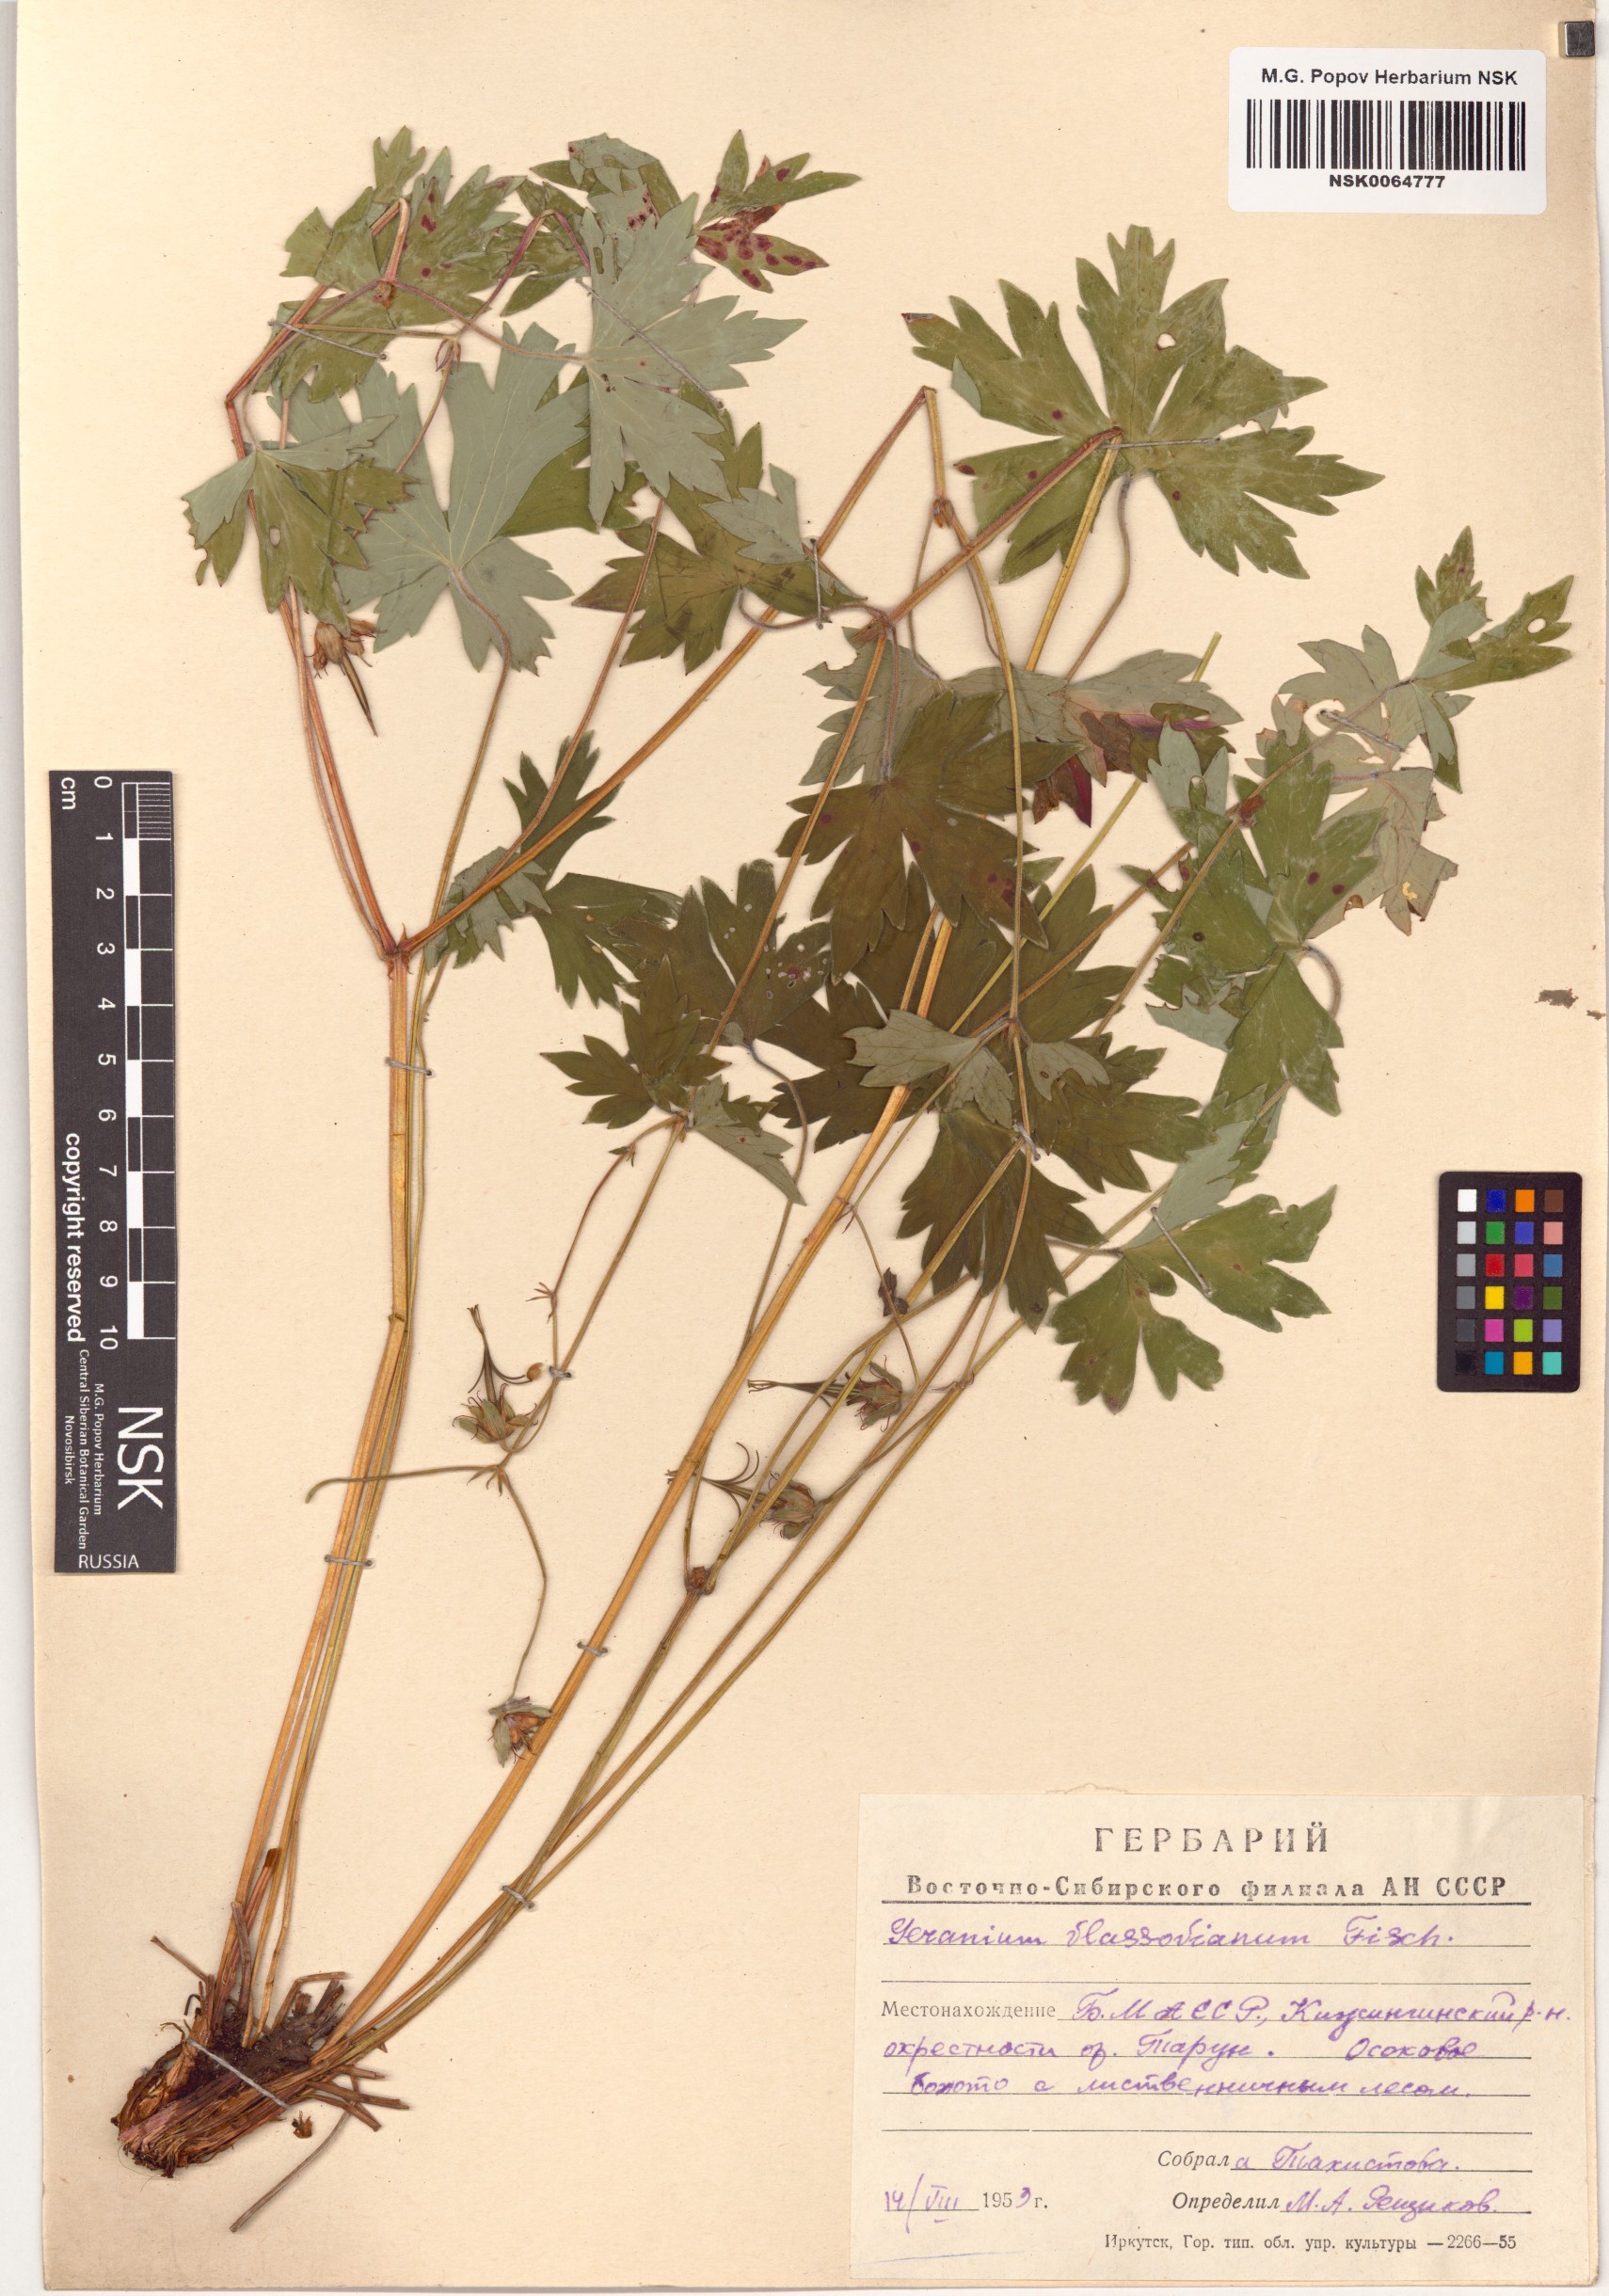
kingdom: Plantae
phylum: Tracheophyta
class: Magnoliopsida
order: Geraniales
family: Geraniaceae
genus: Geranium
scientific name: Geranium wlassovianum
